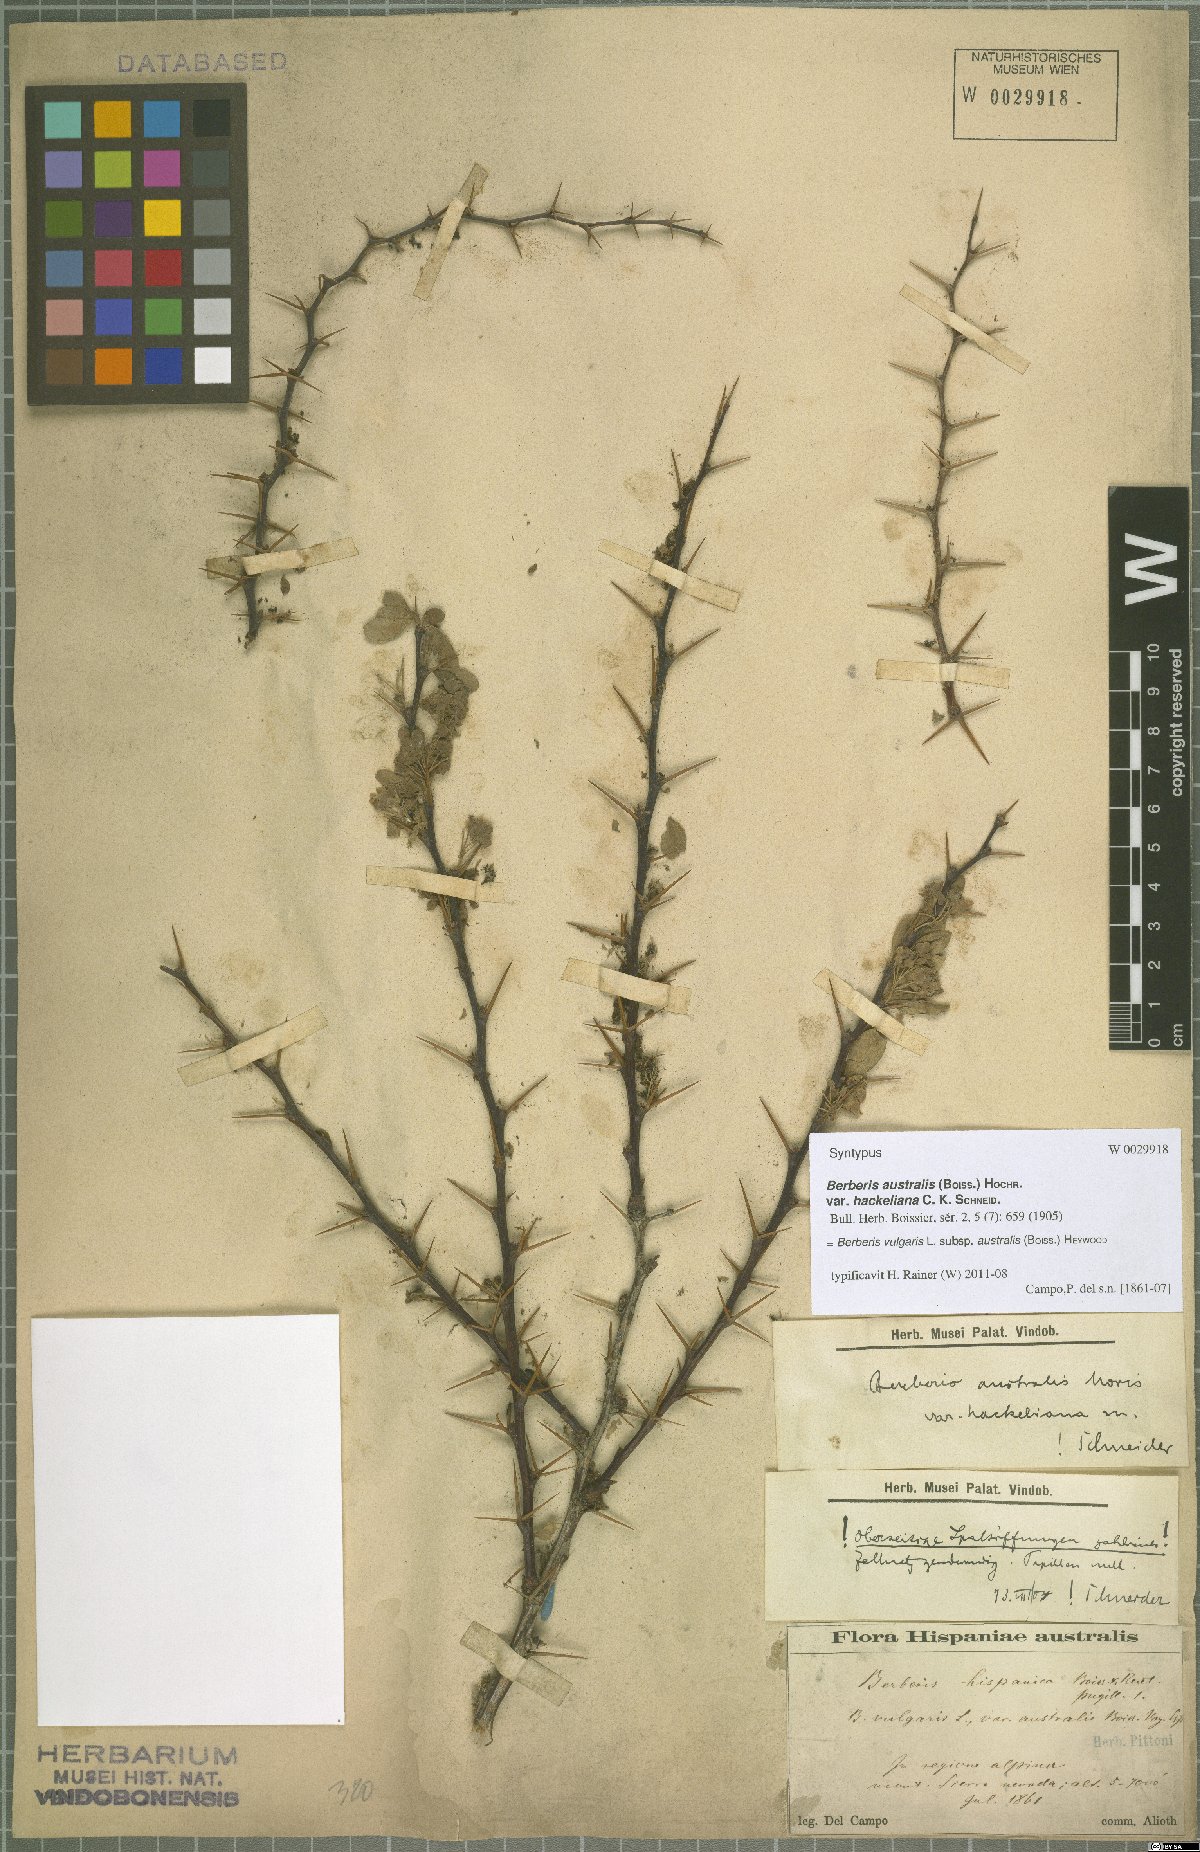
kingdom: Plantae
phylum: Tracheophyta
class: Magnoliopsida
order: Ranunculales
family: Berberidaceae
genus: Berberis
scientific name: Berberis hispanica
